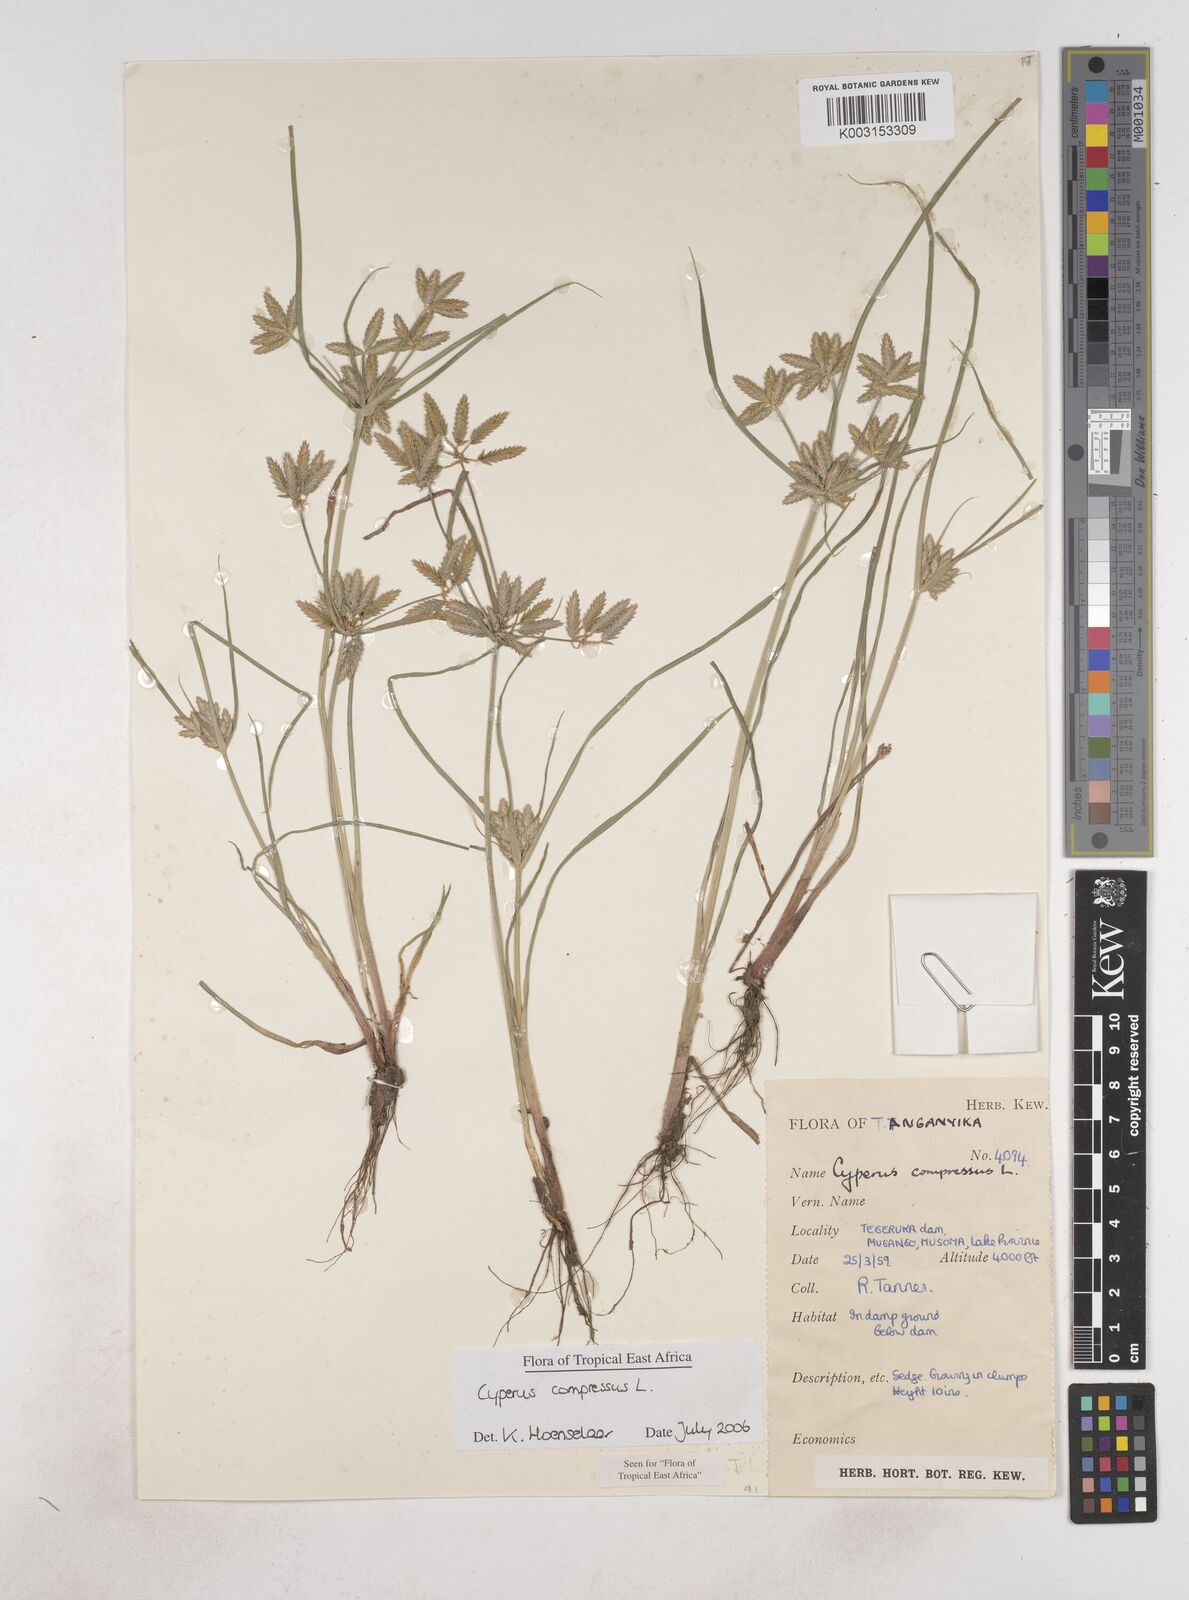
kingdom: Plantae
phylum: Tracheophyta
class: Liliopsida
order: Poales
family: Cyperaceae
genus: Cyperus
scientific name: Cyperus compressus
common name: Poorland flatsedge
